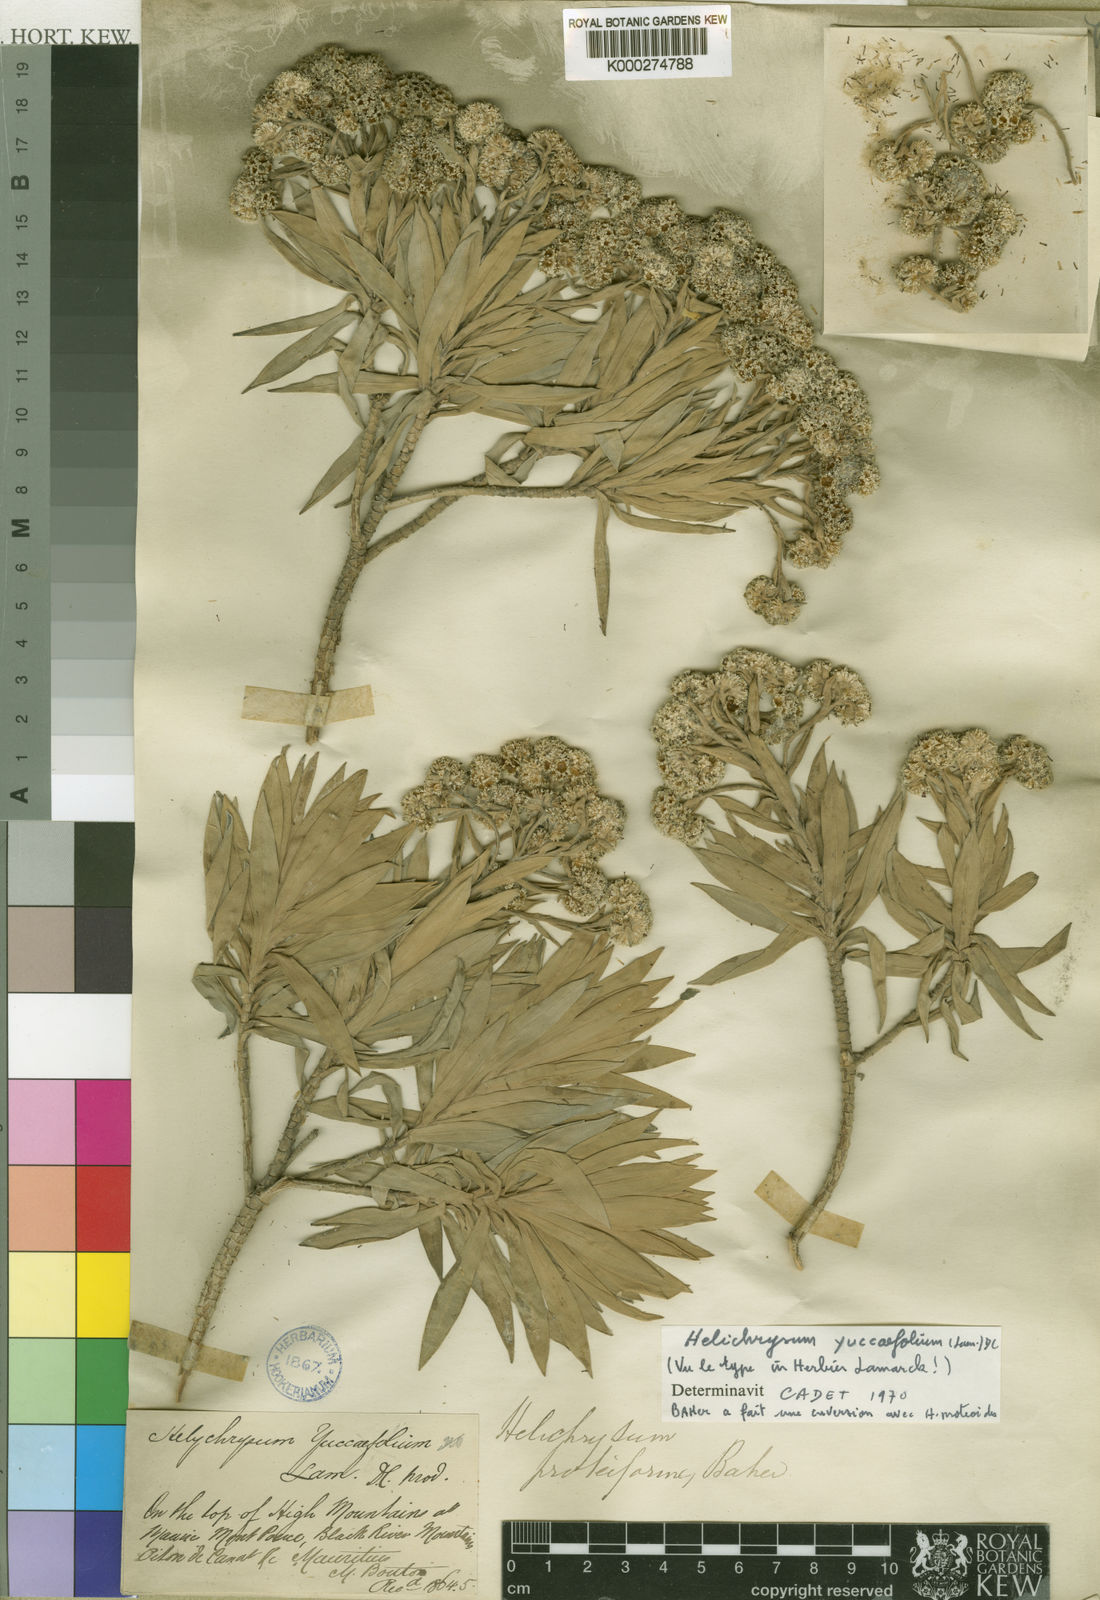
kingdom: Plantae
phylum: Tracheophyta
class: Magnoliopsida
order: Asterales
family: Asteraceae
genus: Helichrysum
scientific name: Helichrysum yuccifolium
